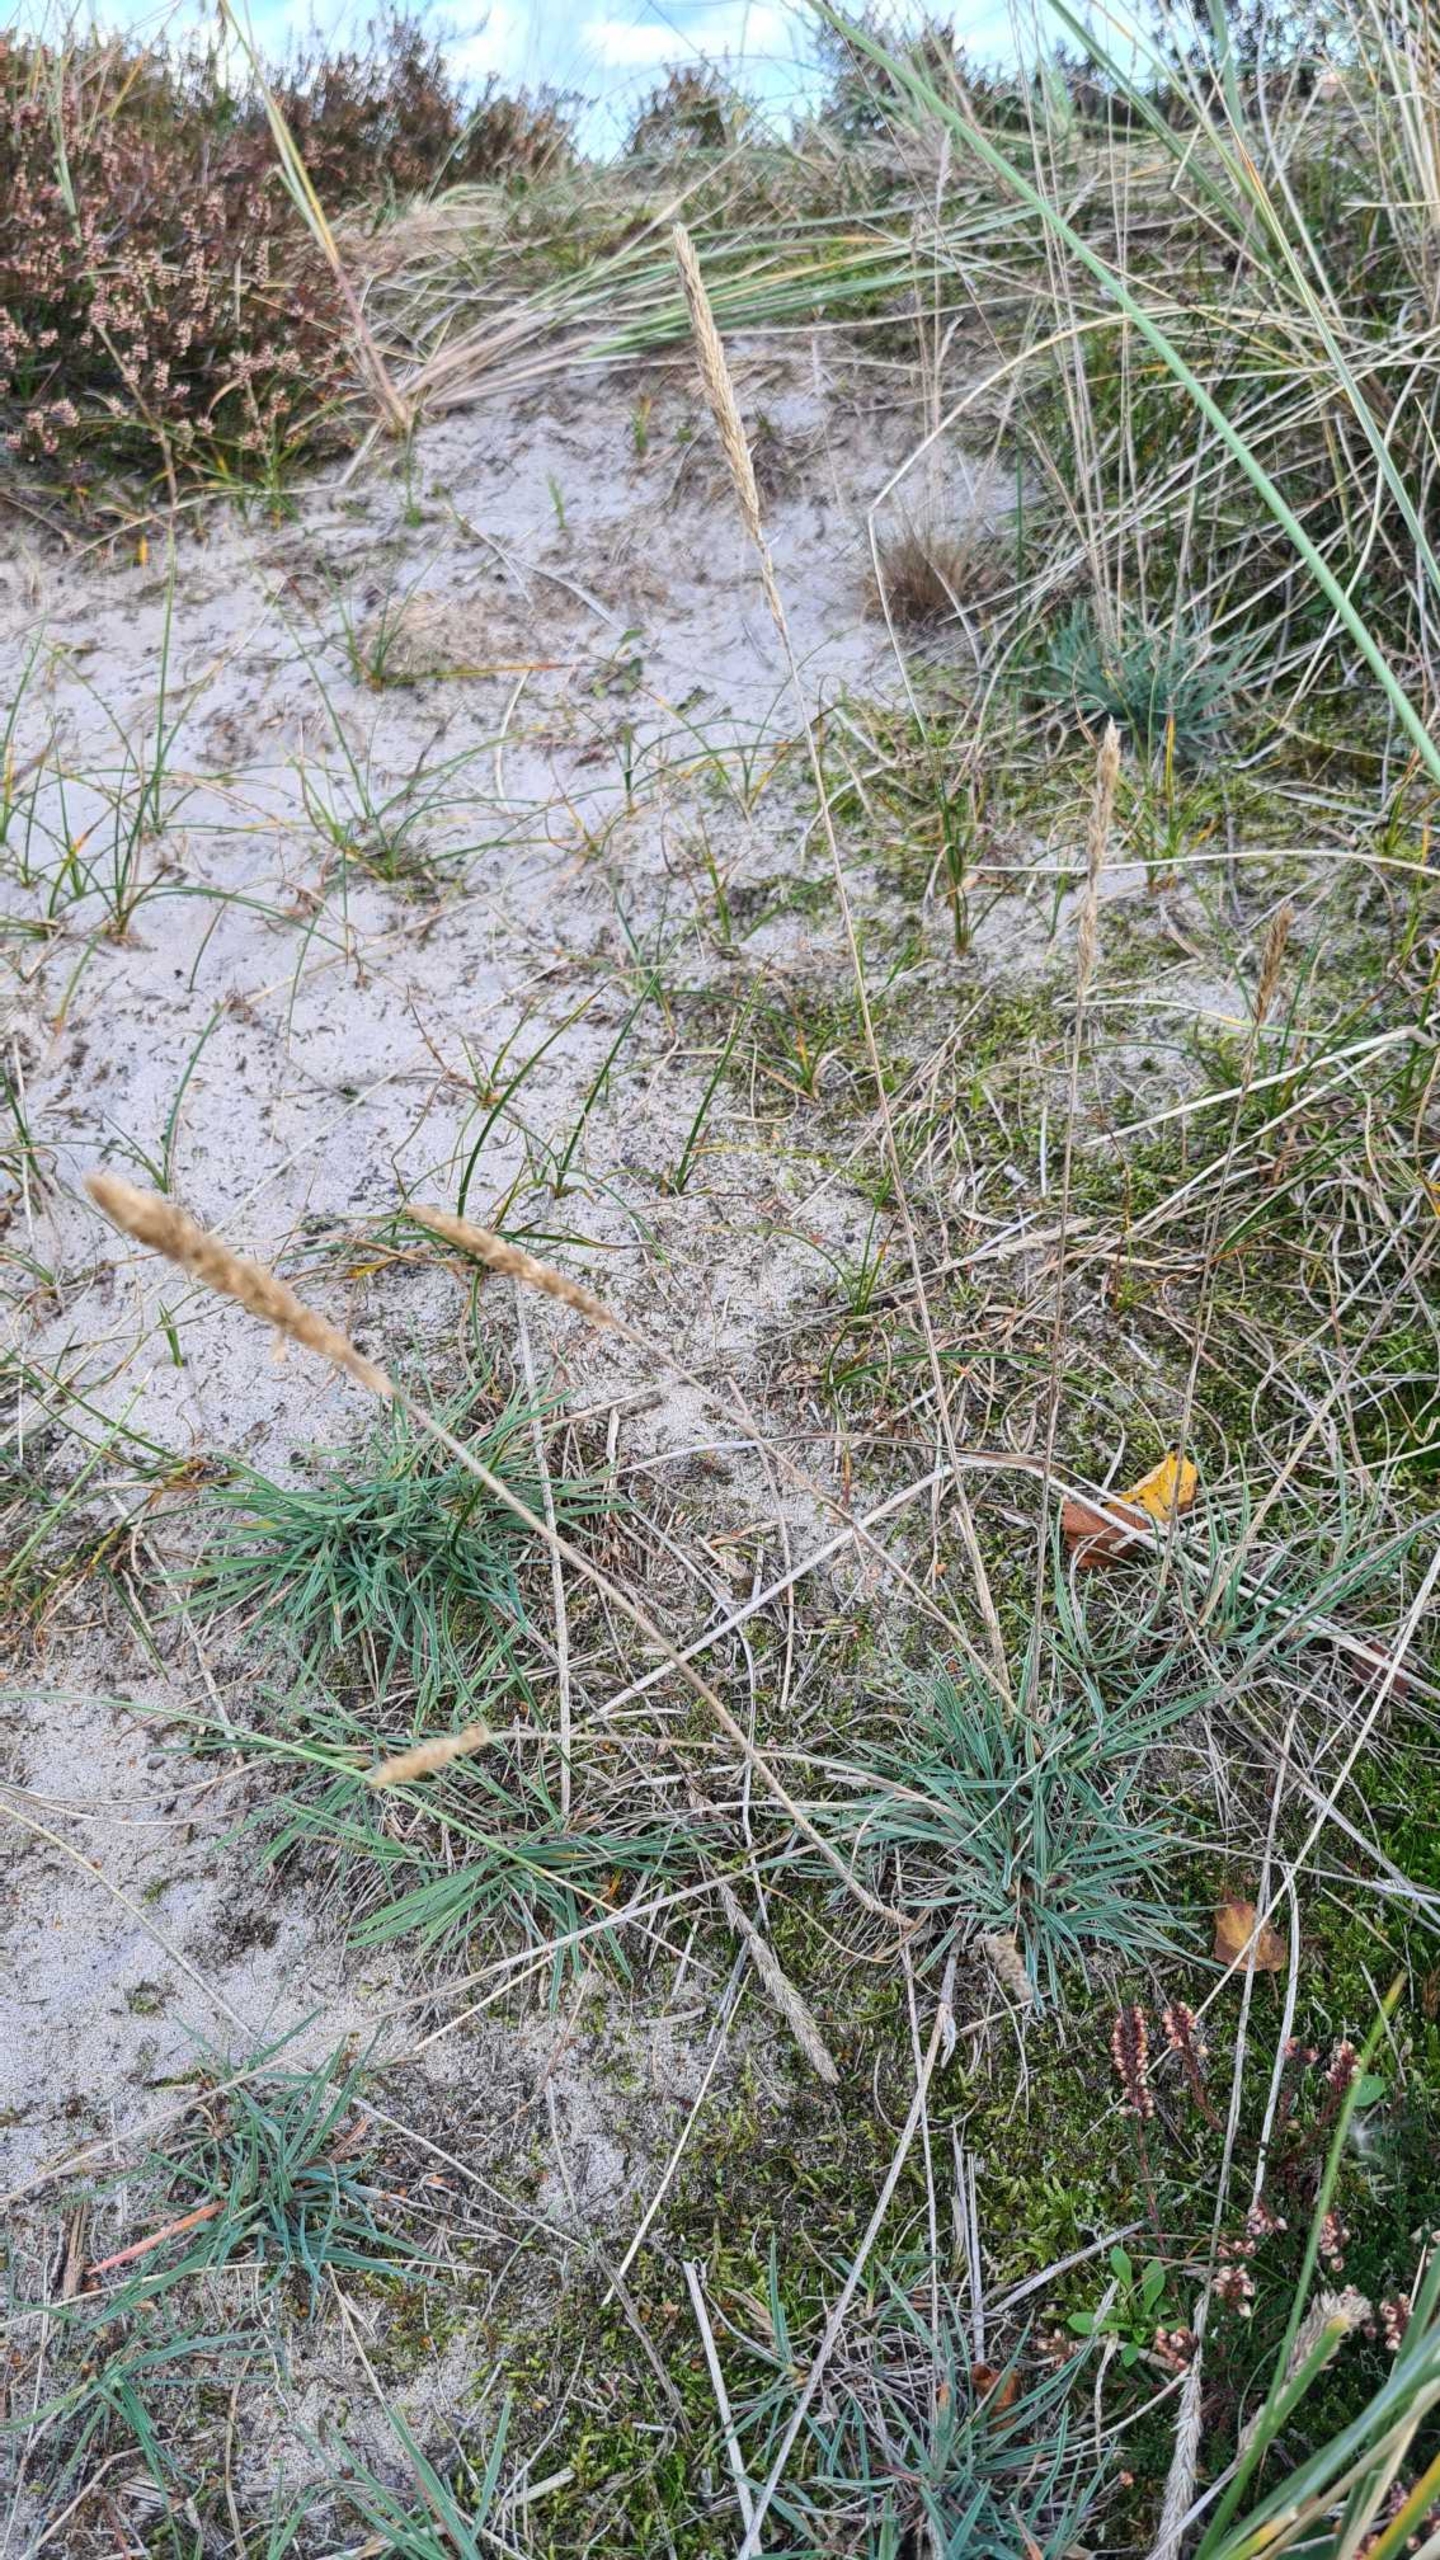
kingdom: Plantae
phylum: Tracheophyta
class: Liliopsida
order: Poales
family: Poaceae
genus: Koeleria
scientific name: Koeleria glauca
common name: Klit-kambunke
